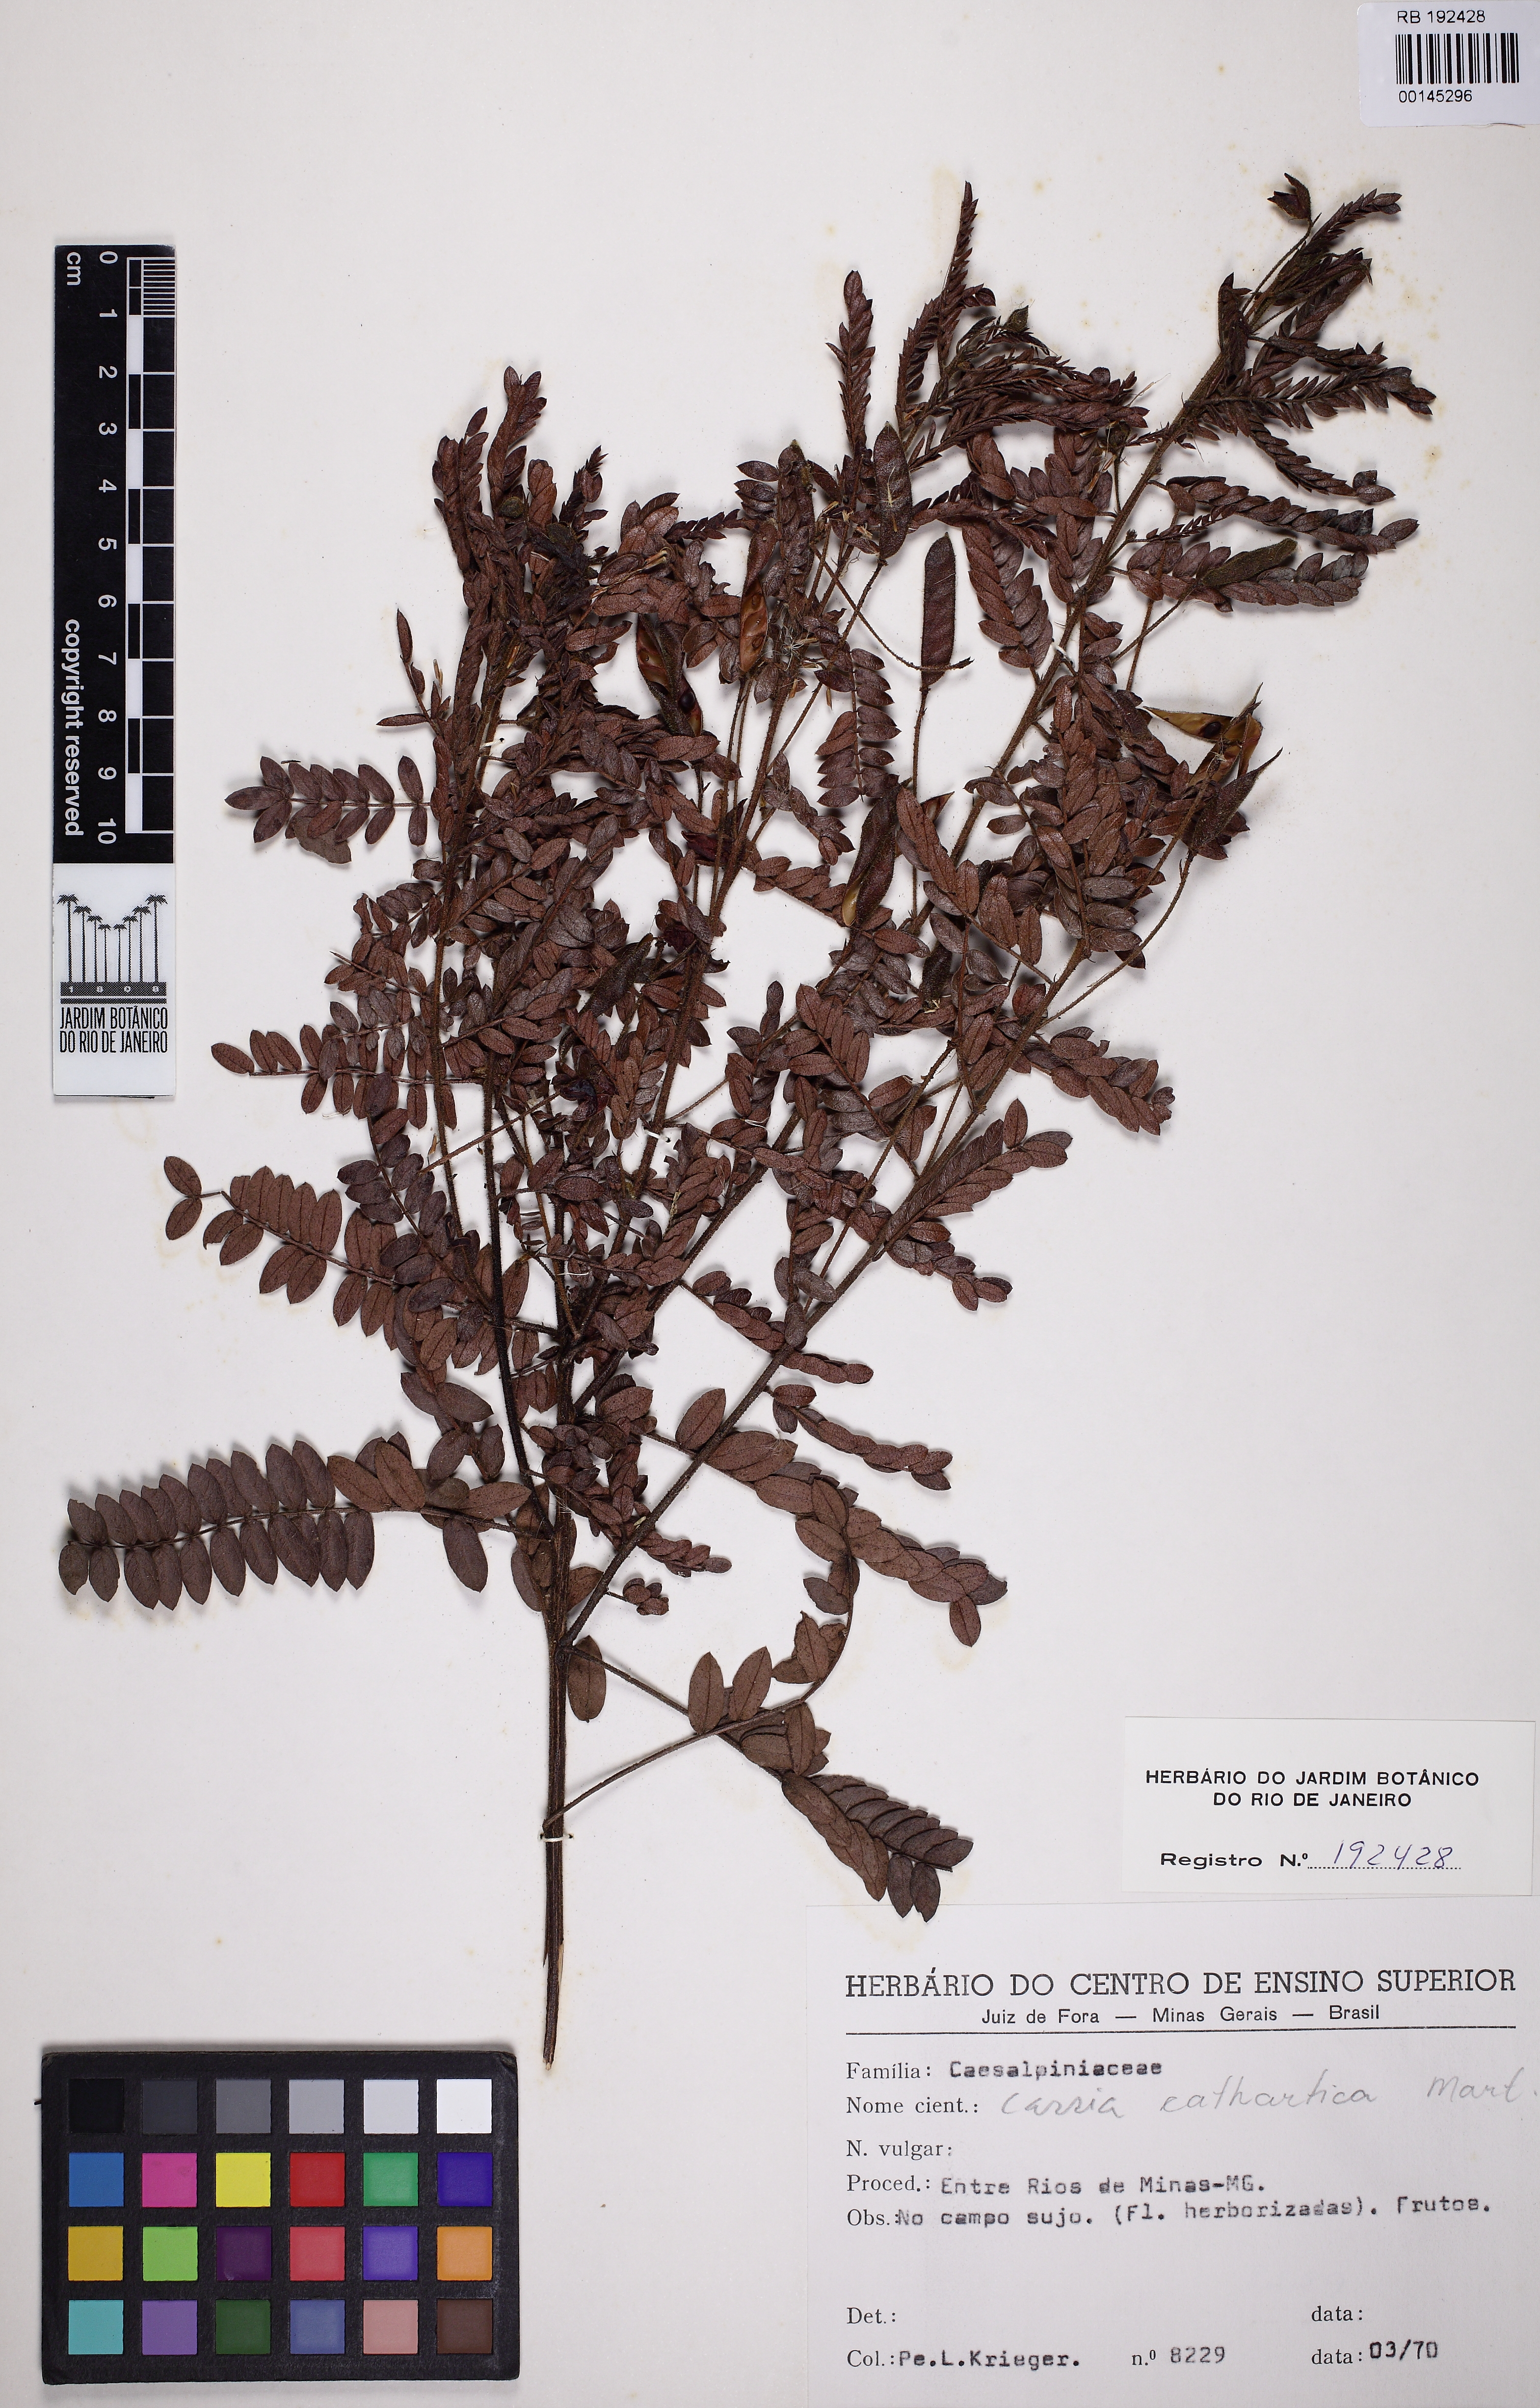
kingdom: Plantae
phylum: Tracheophyta
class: Magnoliopsida
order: Fabales
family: Fabaceae
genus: Chamaecrista
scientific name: Chamaecrista cathartica
